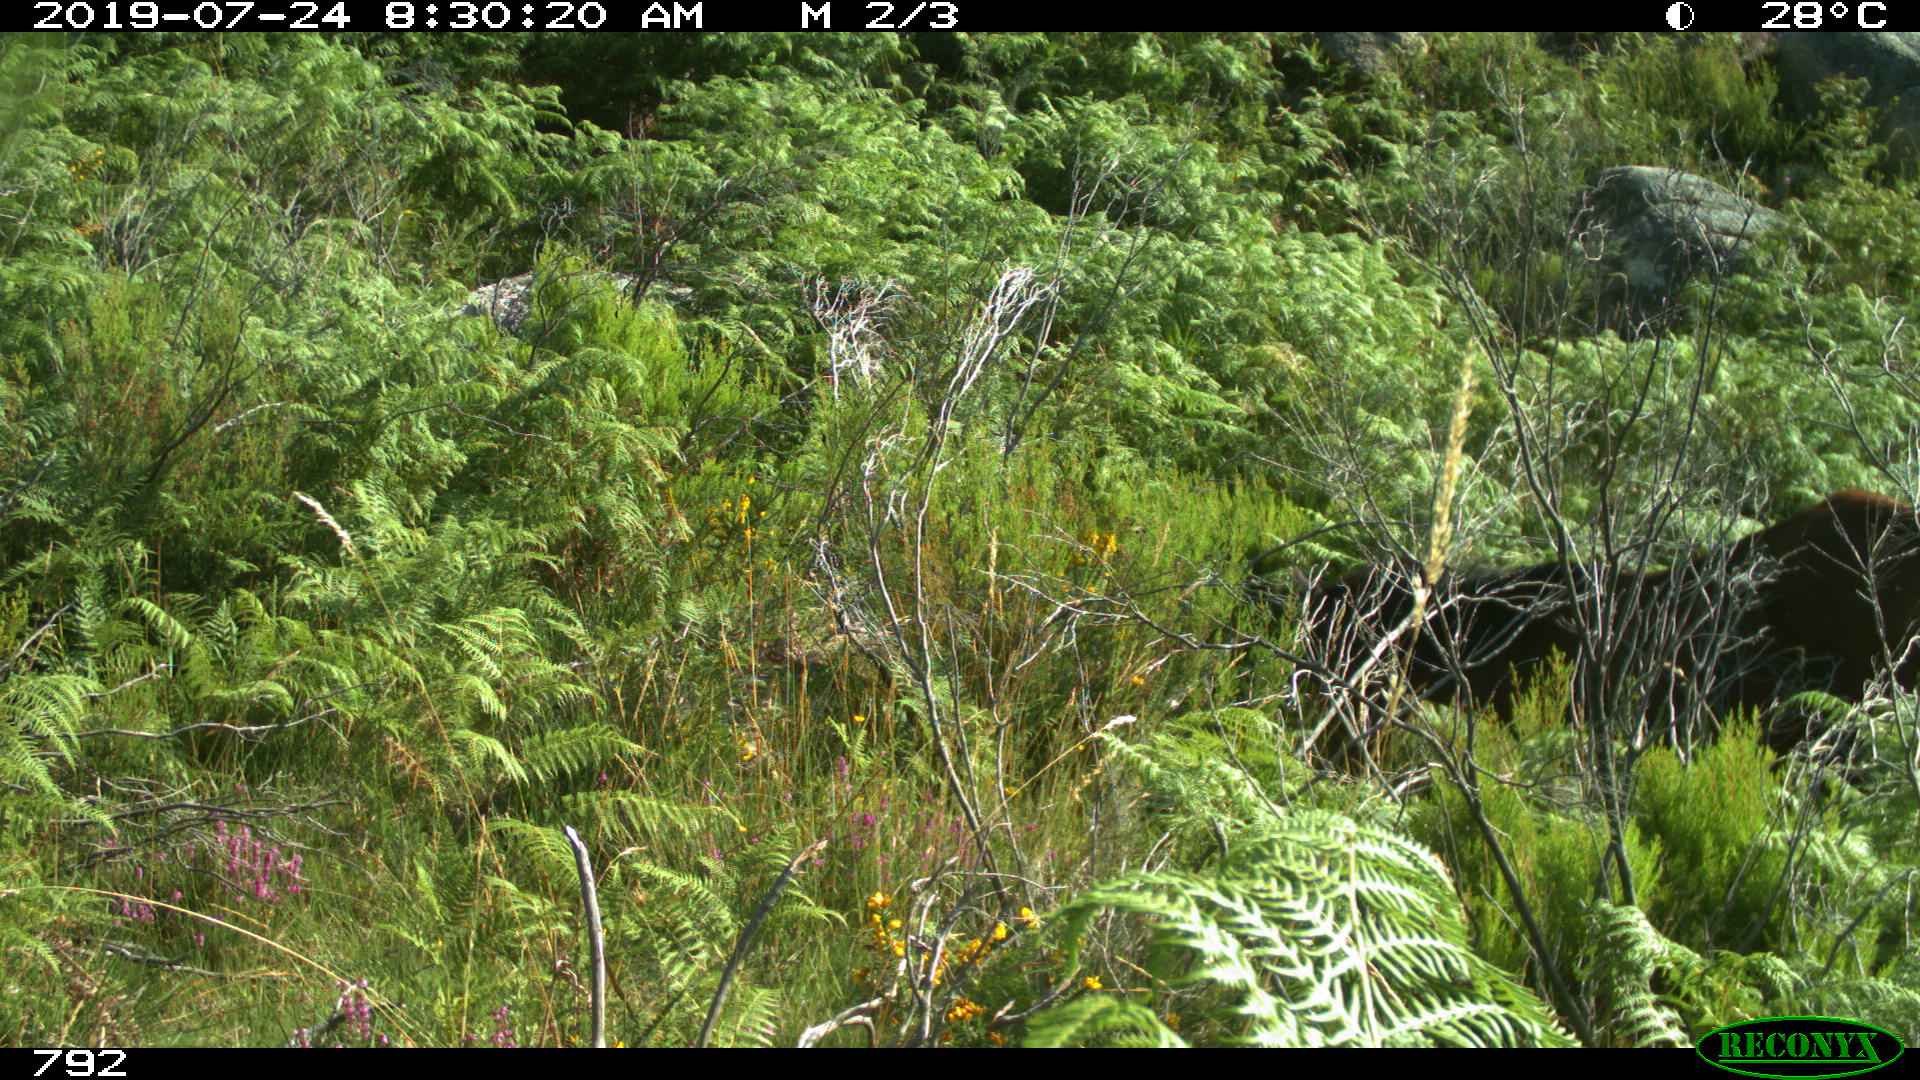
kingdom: Animalia
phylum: Chordata
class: Mammalia
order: Perissodactyla
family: Equidae
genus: Equus
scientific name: Equus caballus
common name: Horse
